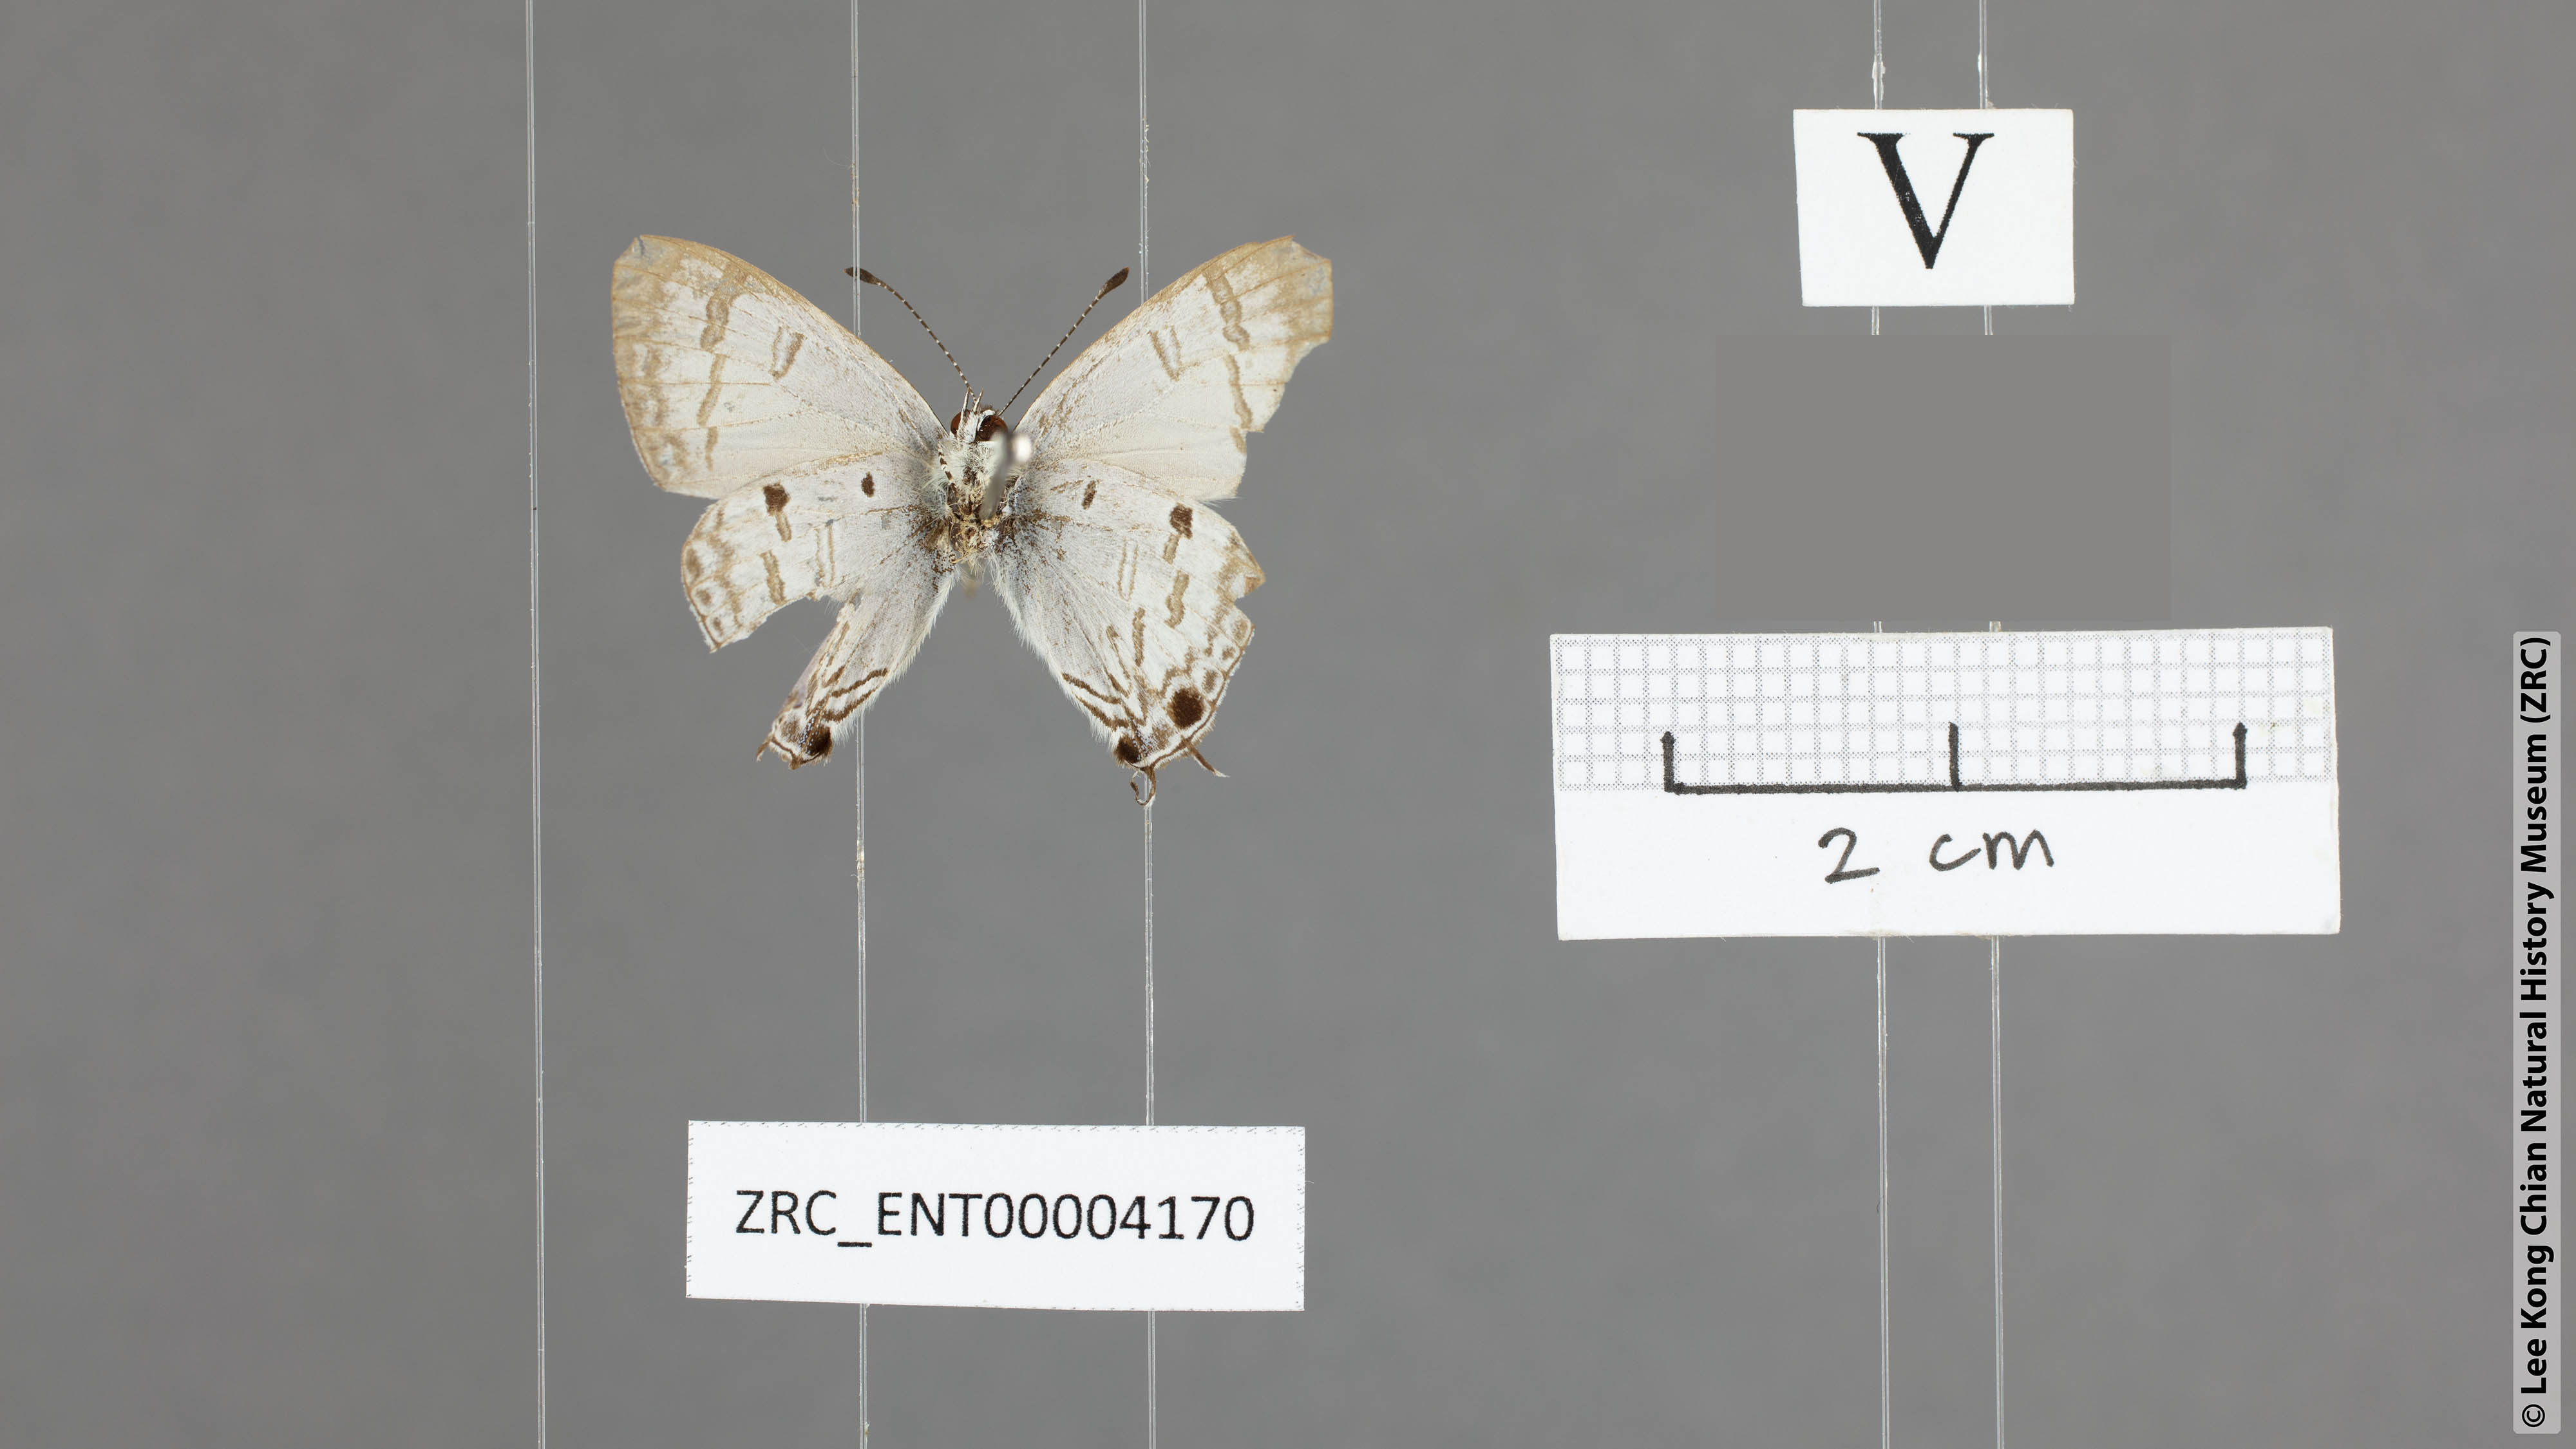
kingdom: Animalia
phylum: Arthropoda
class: Insecta
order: Lepidoptera
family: Lycaenidae
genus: Chliaria
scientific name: Chliaria kina
